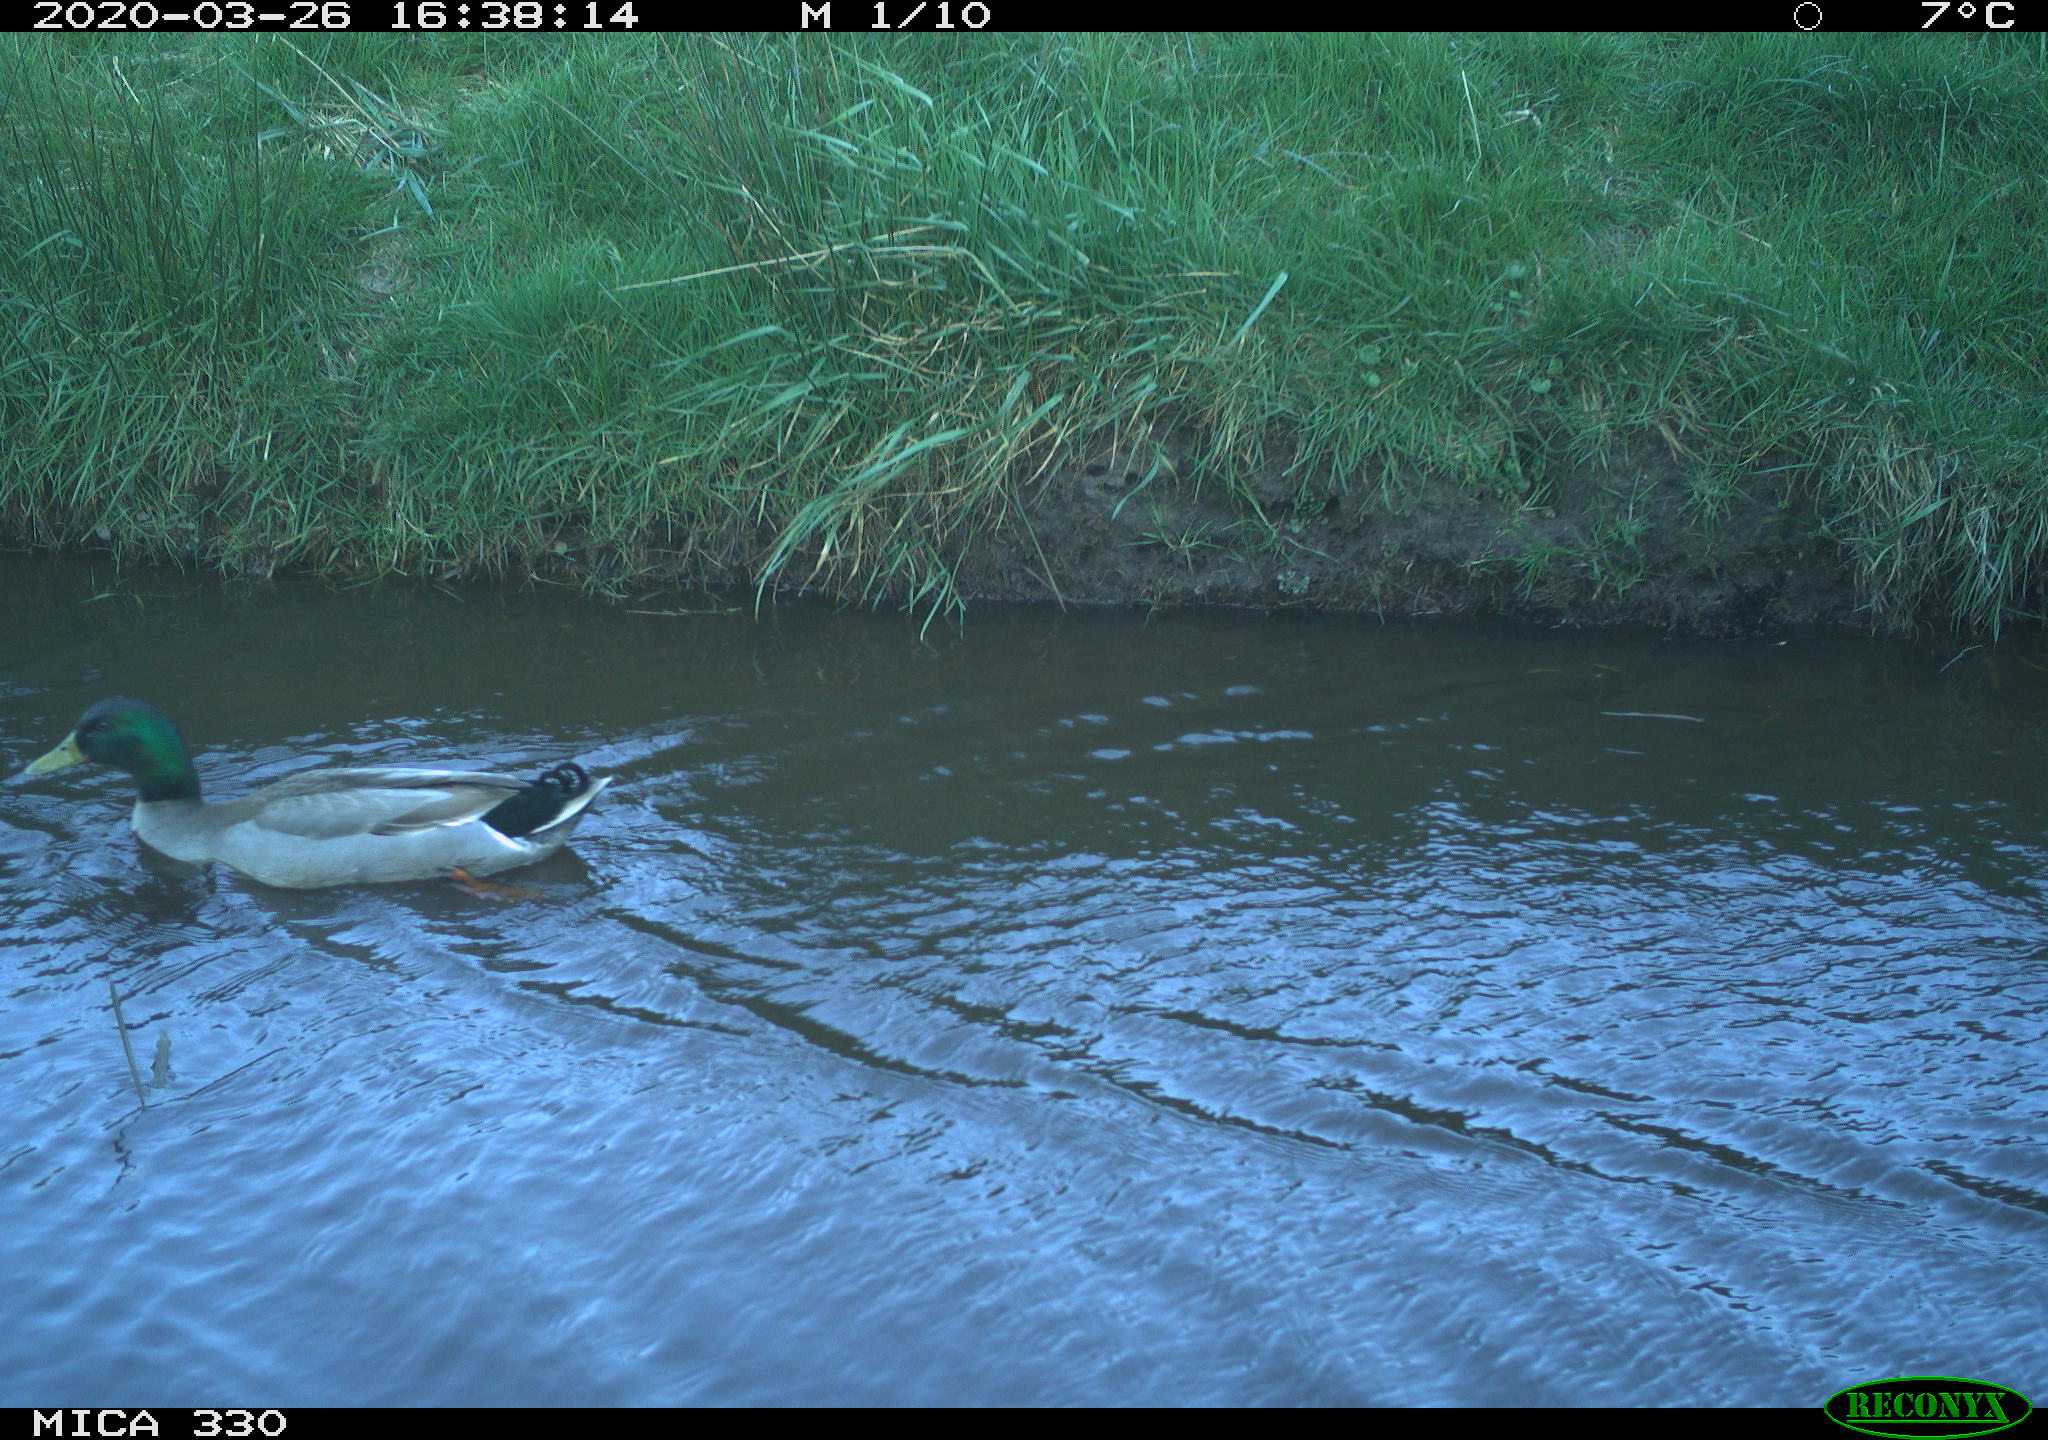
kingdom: Animalia
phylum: Chordata
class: Aves
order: Anseriformes
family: Anatidae
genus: Anas
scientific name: Anas platyrhynchos
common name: Mallard
